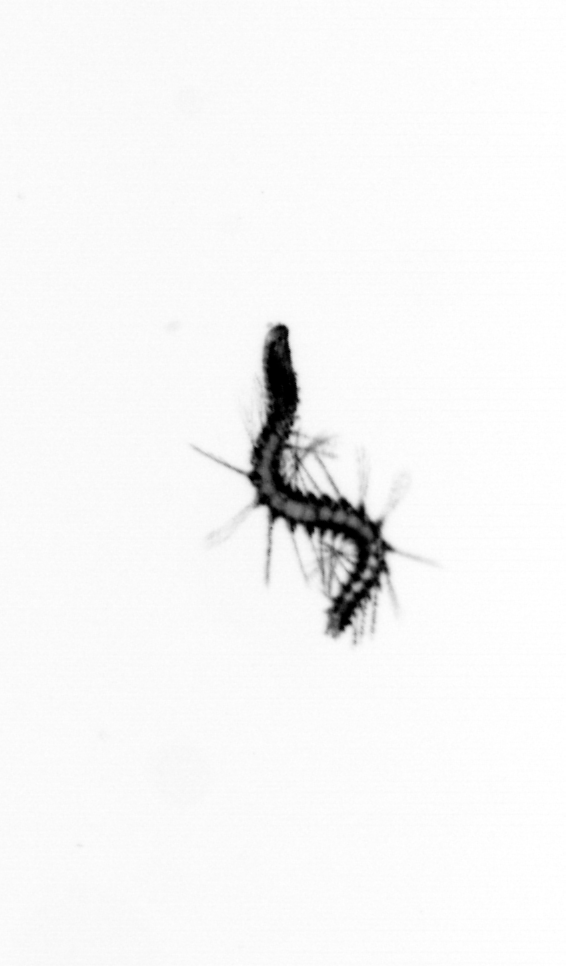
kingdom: Animalia
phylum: Annelida
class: Polychaeta
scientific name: Polychaeta
